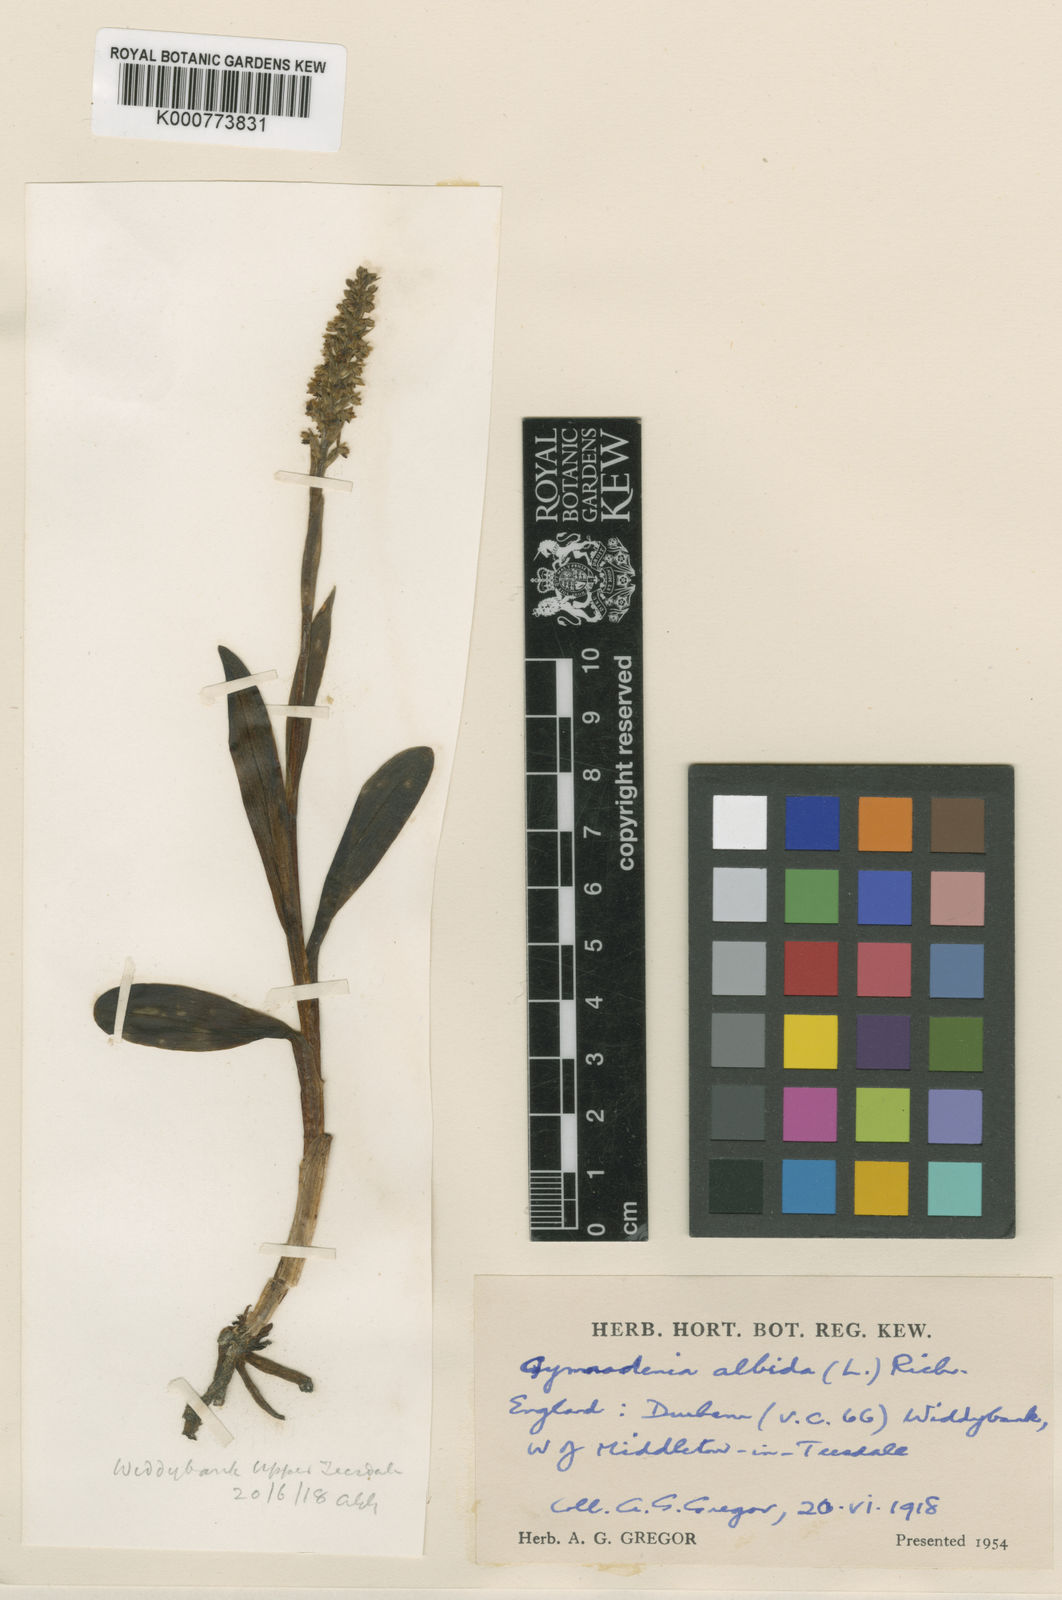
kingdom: Plantae
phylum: Tracheophyta
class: Liliopsida
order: Asparagales
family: Orchidaceae
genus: Pseudorchis
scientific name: Pseudorchis
